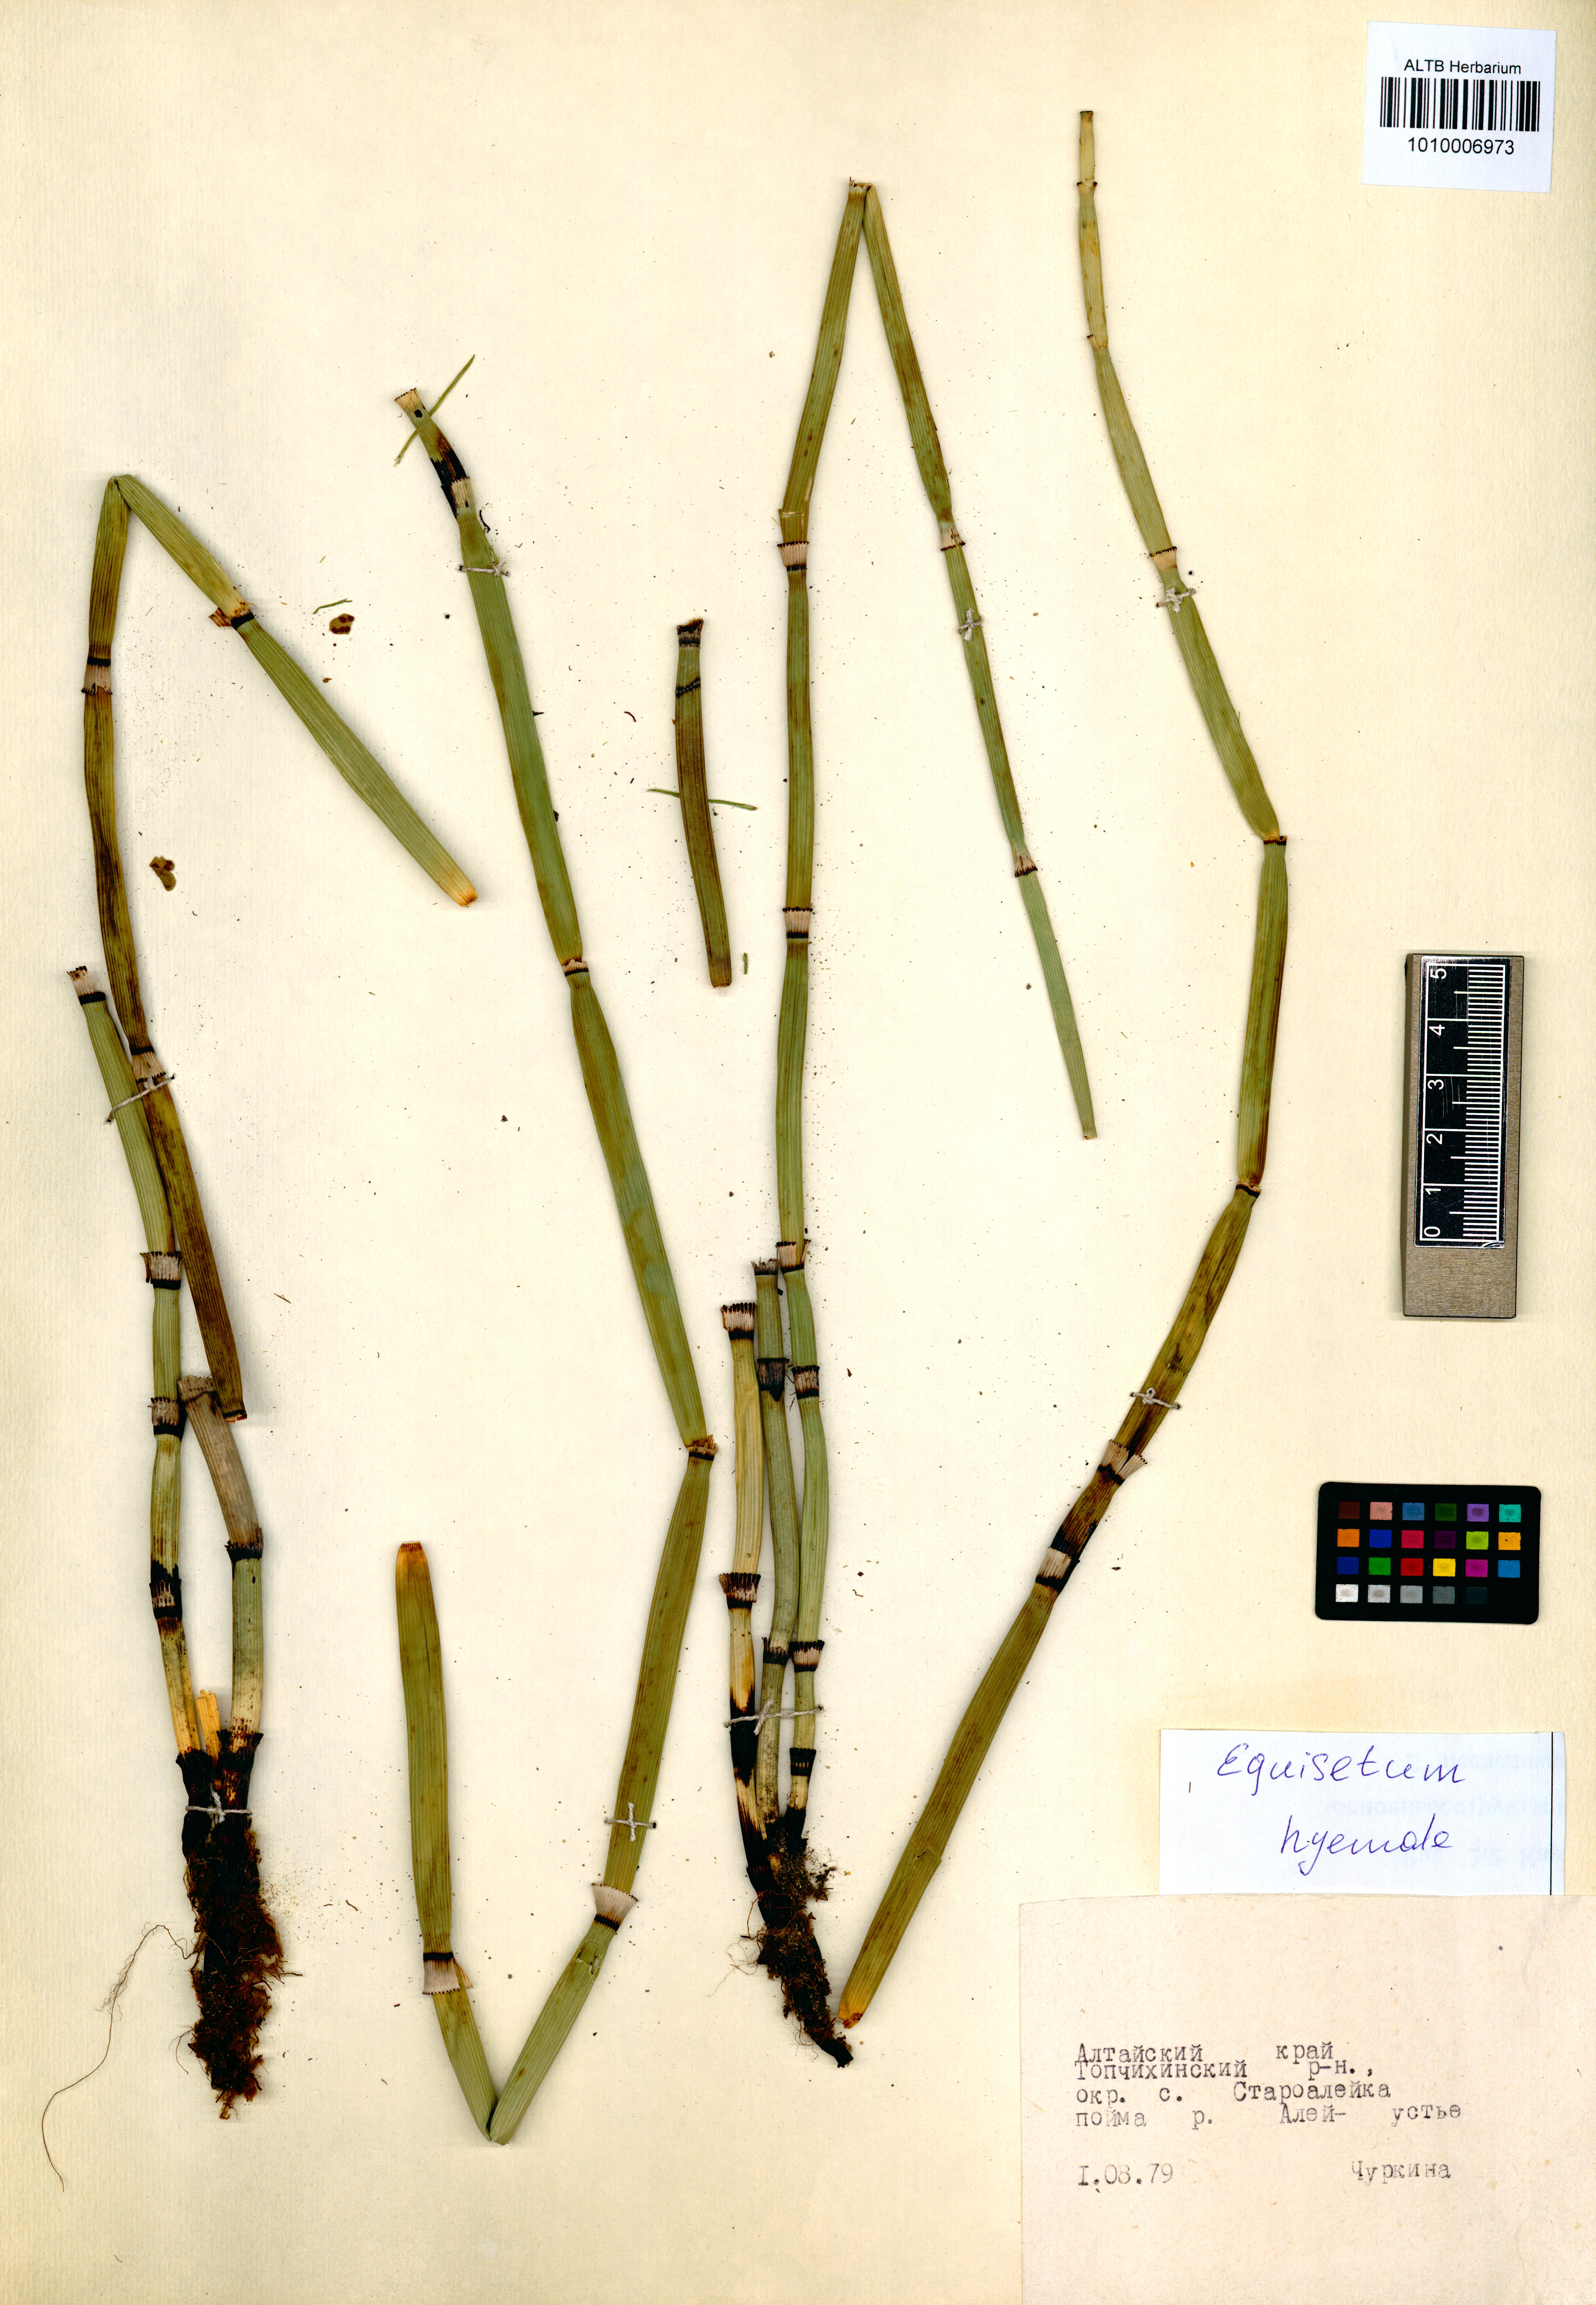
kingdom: Plantae
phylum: Tracheophyta
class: Polypodiopsida
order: Equisetales
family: Equisetaceae
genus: Equisetum
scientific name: Equisetum hyemale
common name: Rough horsetail
